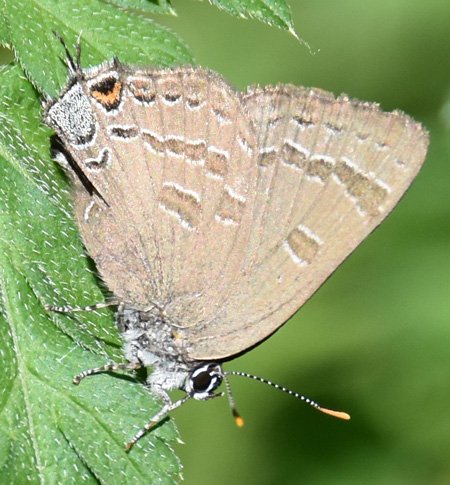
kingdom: Animalia
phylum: Arthropoda
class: Insecta
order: Lepidoptera
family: Lycaenidae
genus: Strymon
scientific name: Strymon caryaevorus
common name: Hickory Hairstreak
